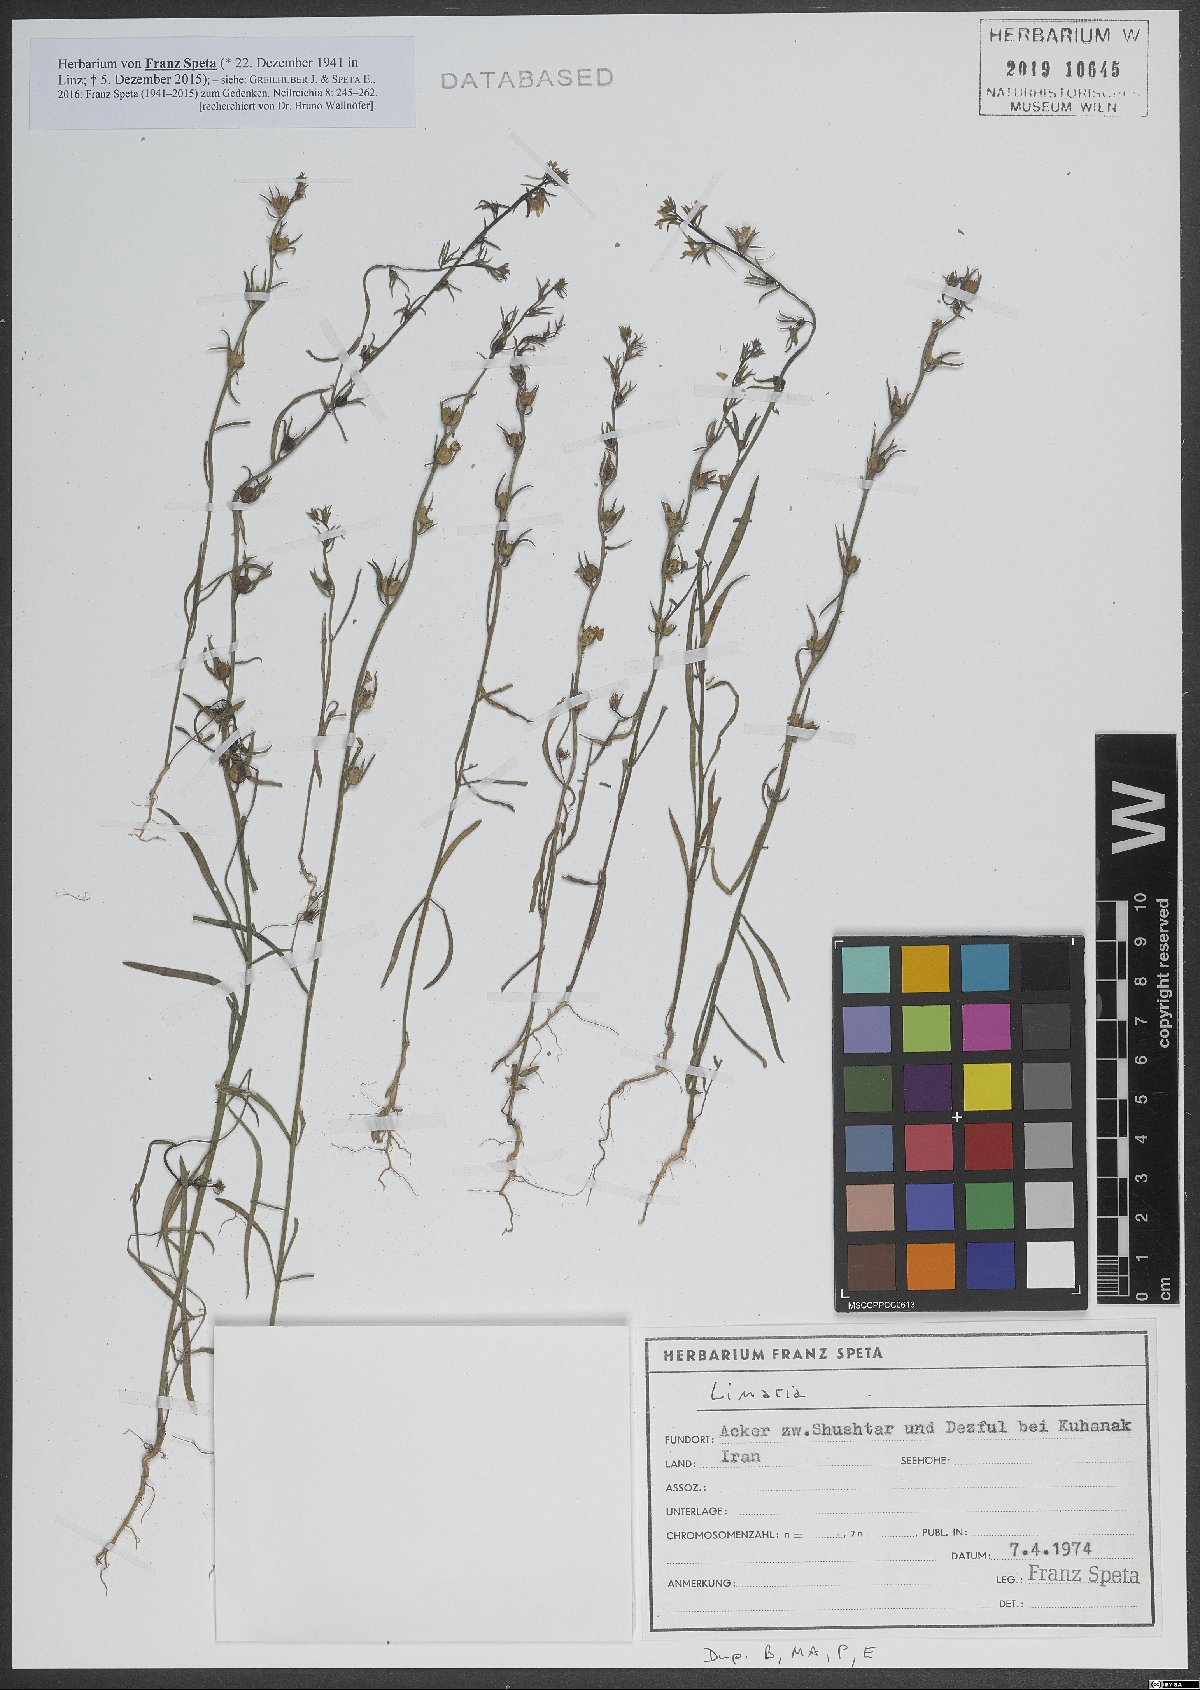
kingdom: Plantae
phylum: Tracheophyta
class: Magnoliopsida
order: Lamiales
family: Plantaginaceae
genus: Linaria
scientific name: Linaria
